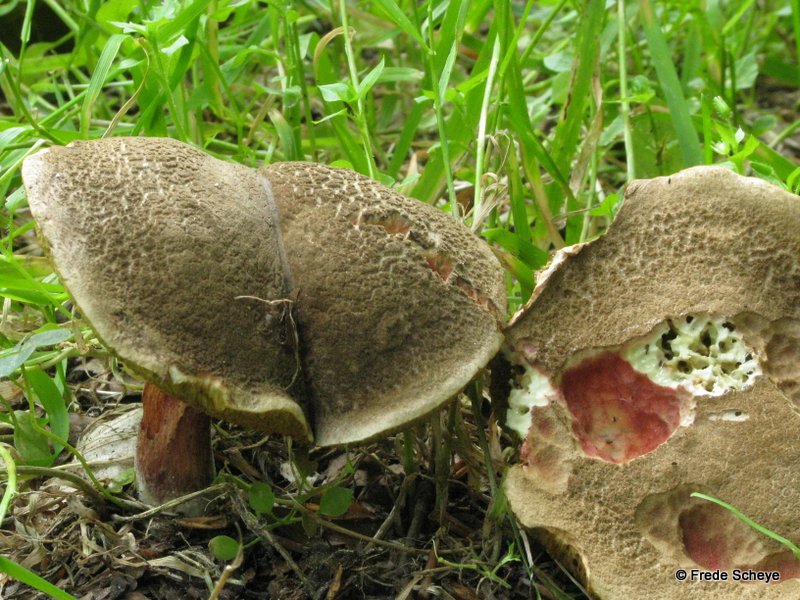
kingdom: Fungi
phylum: Basidiomycota
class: Agaricomycetes
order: Boletales
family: Boletaceae
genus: Xerocomellus
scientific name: Xerocomellus chrysenteron
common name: rødsprukken rørhat
